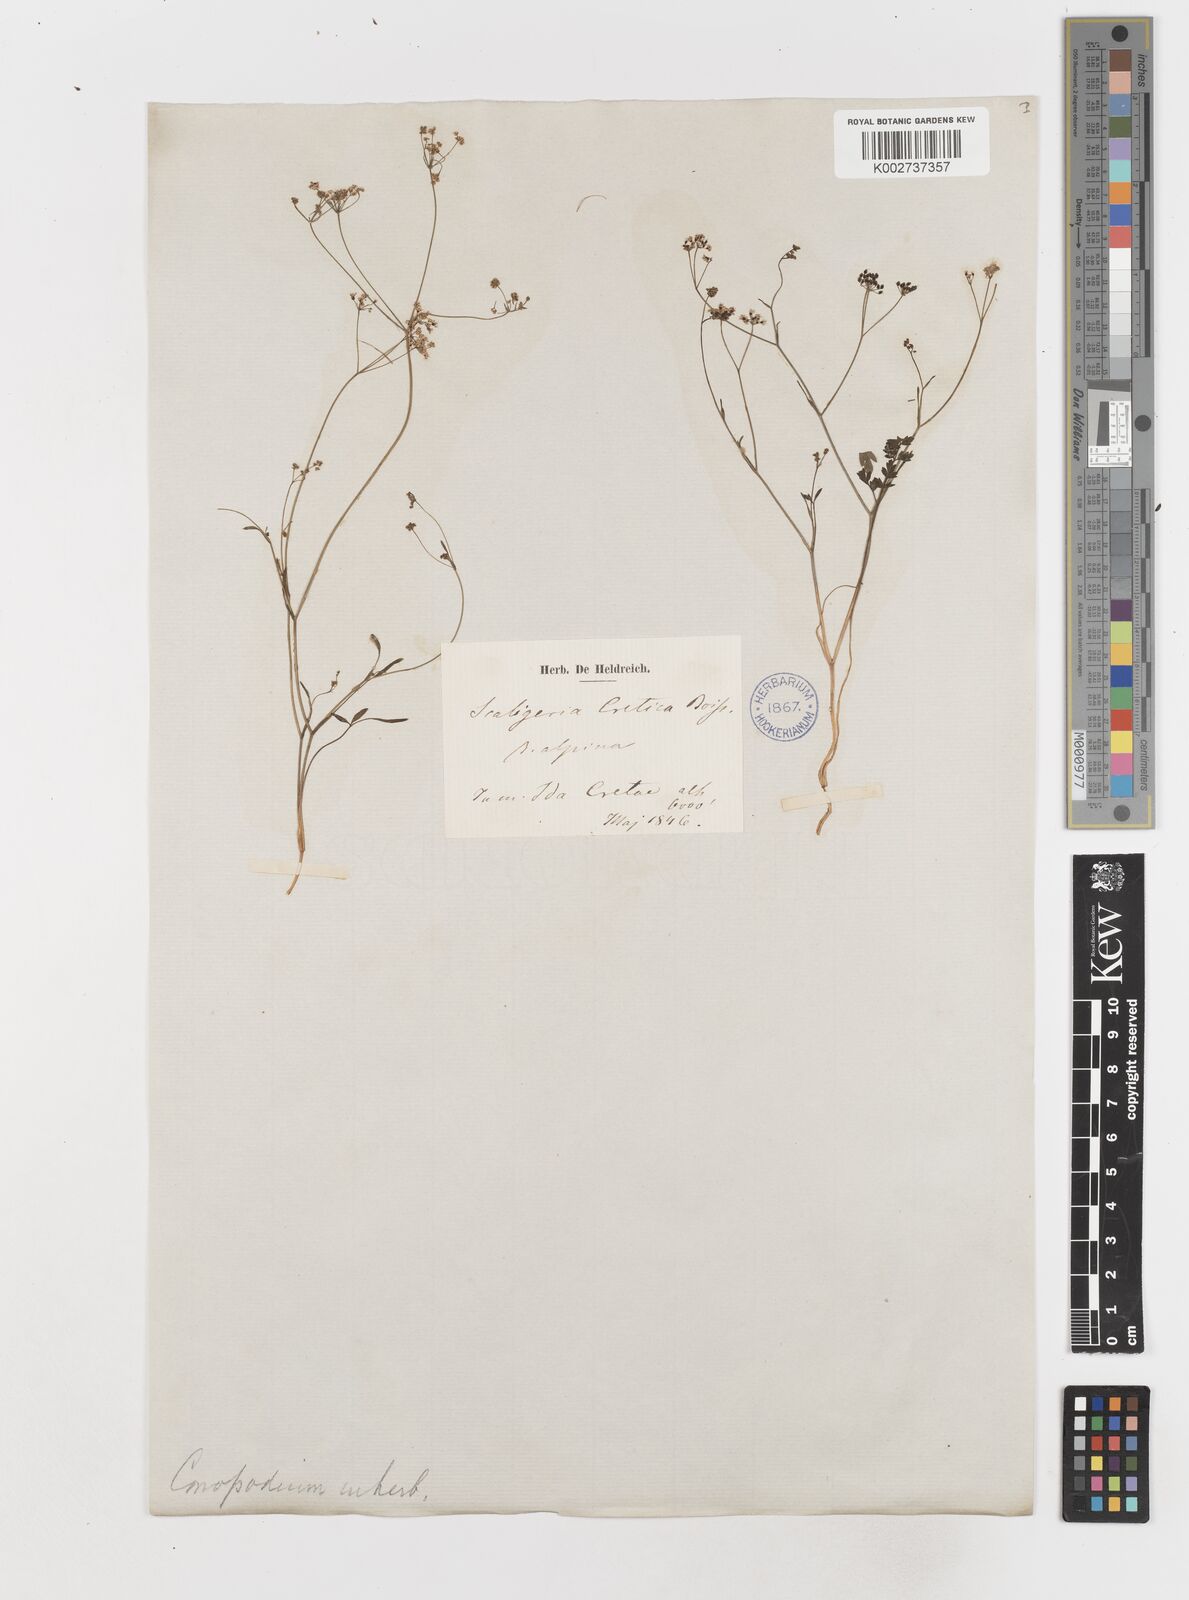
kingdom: Plantae
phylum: Tracheophyta
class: Magnoliopsida
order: Apiales
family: Apiaceae
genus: Scaligeria
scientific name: Scaligeria napiformis
